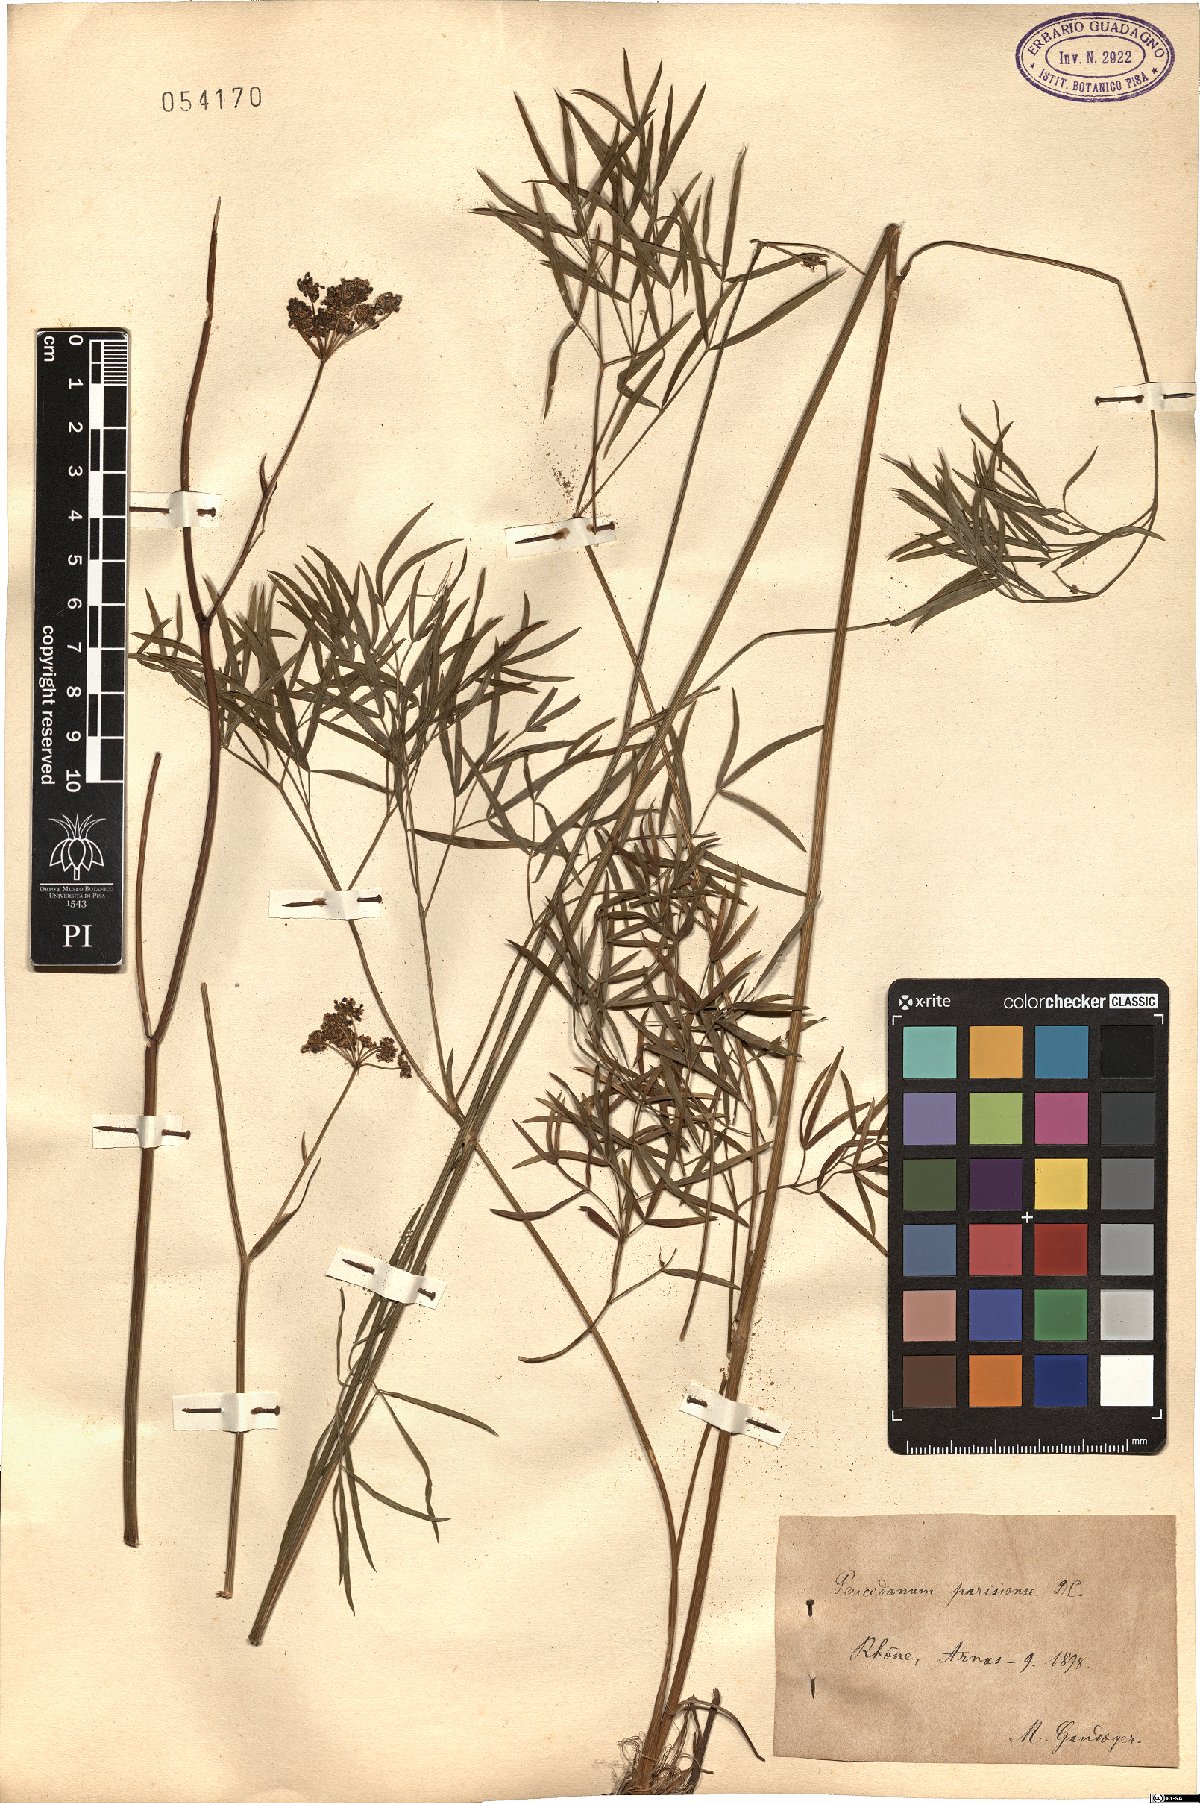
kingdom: Plantae
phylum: Tracheophyta
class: Magnoliopsida
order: Apiales
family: Apiaceae
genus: Peucedanum
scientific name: Peucedanum gallicum
